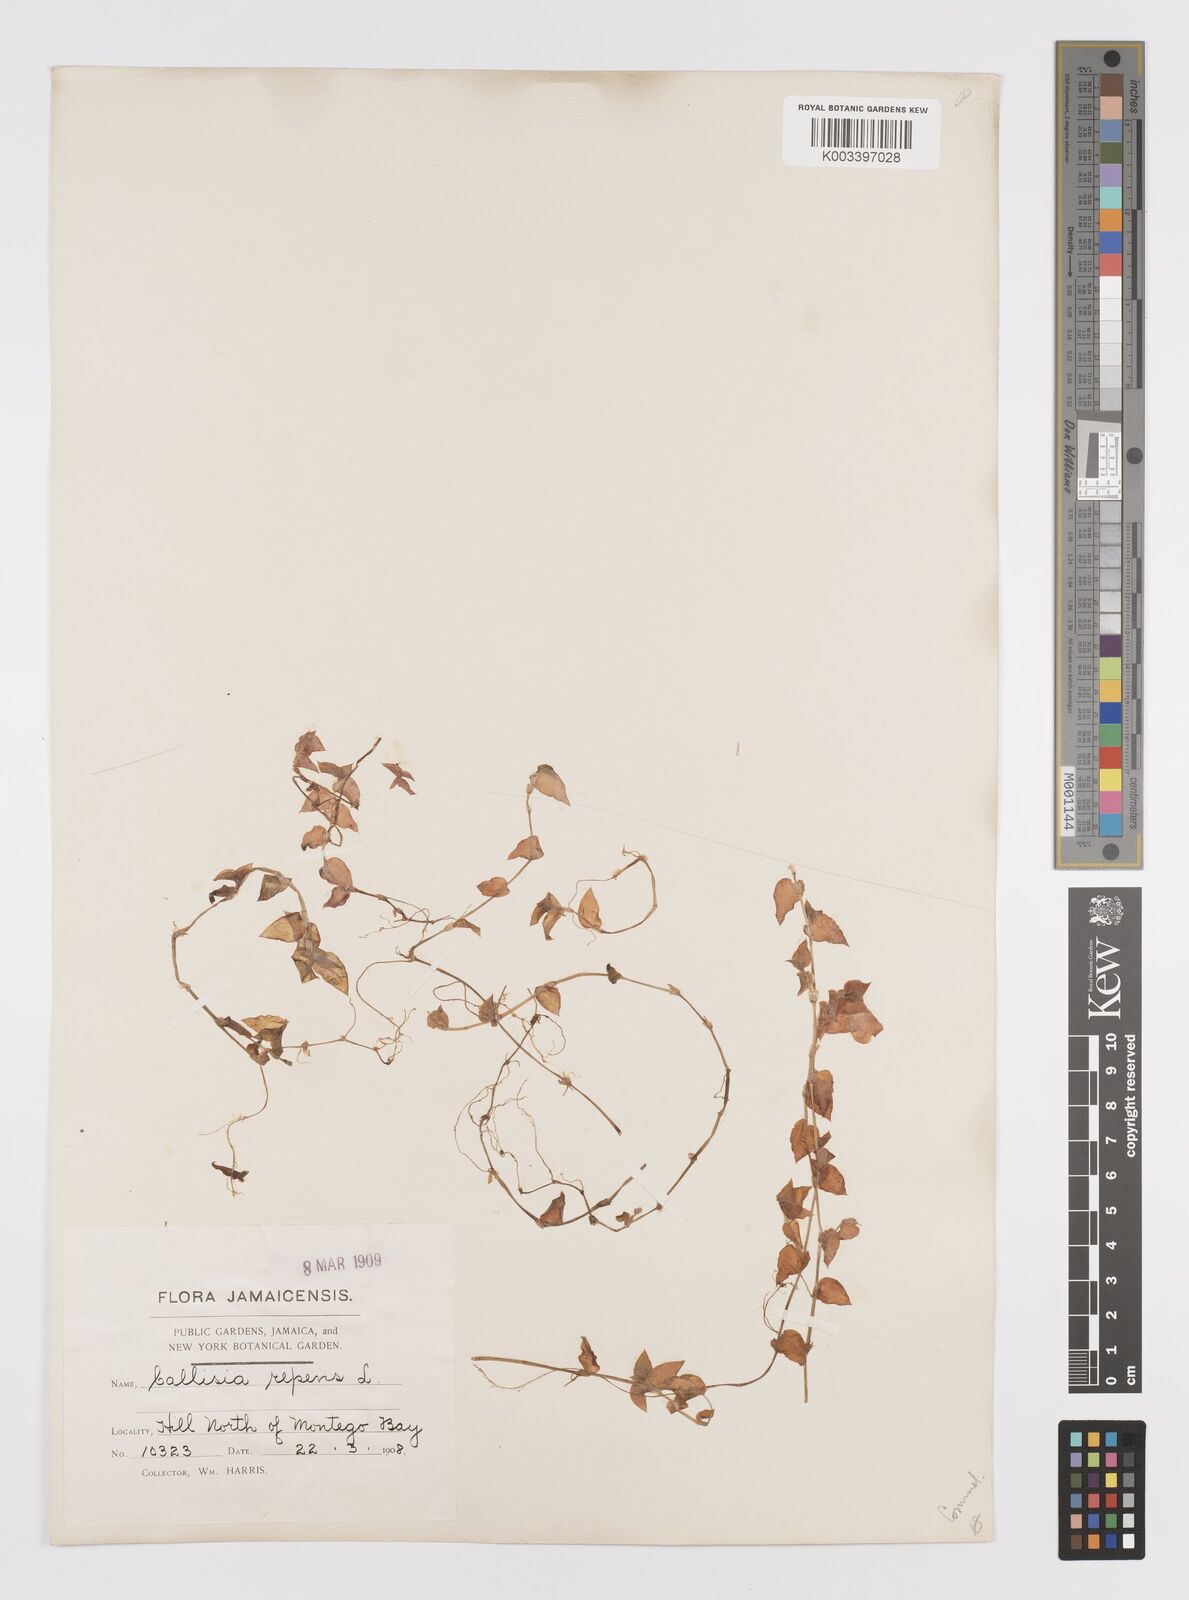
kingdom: Plantae
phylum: Tracheophyta
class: Liliopsida
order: Commelinales
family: Commelinaceae
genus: Callisia
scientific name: Callisia repens
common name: Creeping inchplant
